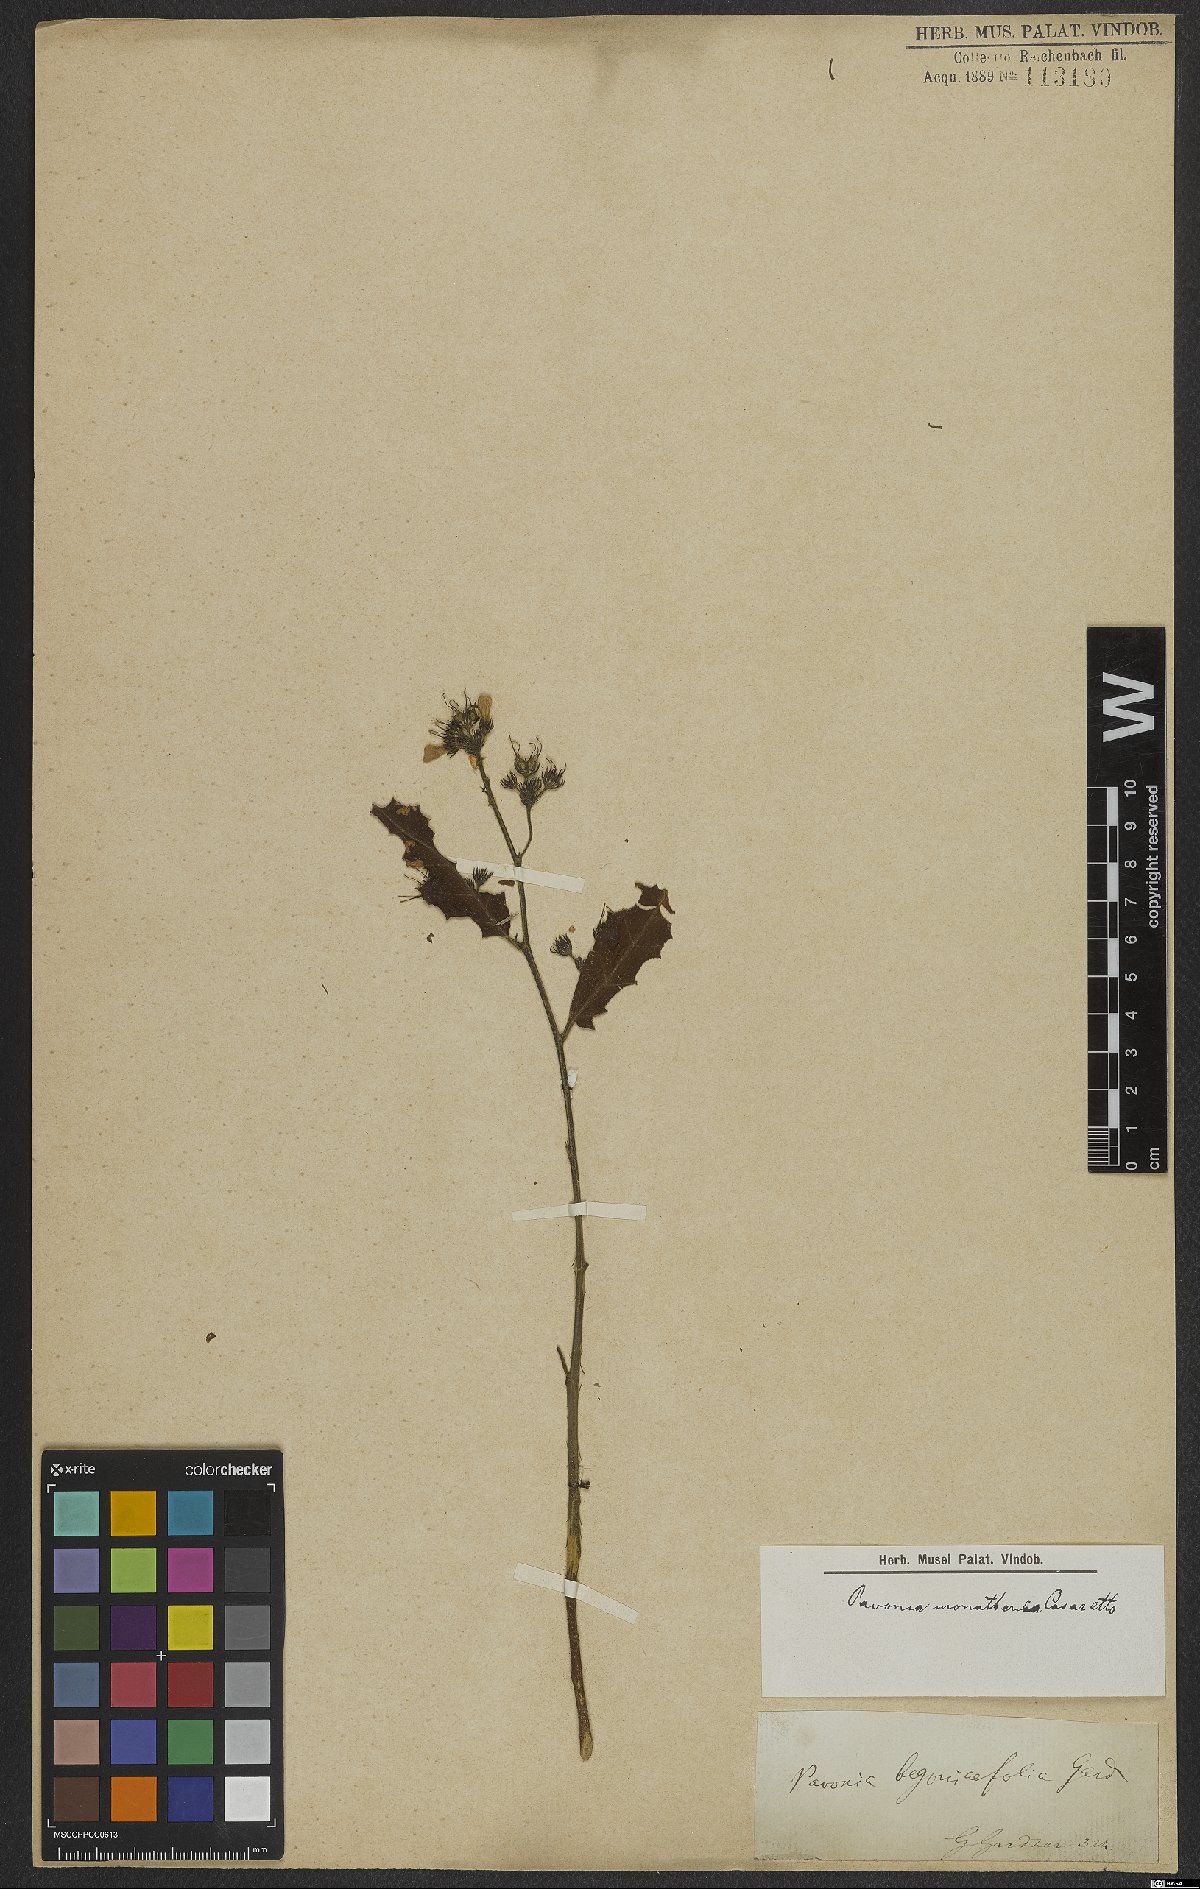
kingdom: Plantae
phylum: Tracheophyta
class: Magnoliopsida
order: Malvales
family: Malvaceae
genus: Pavonia
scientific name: Pavonia fruticosa
